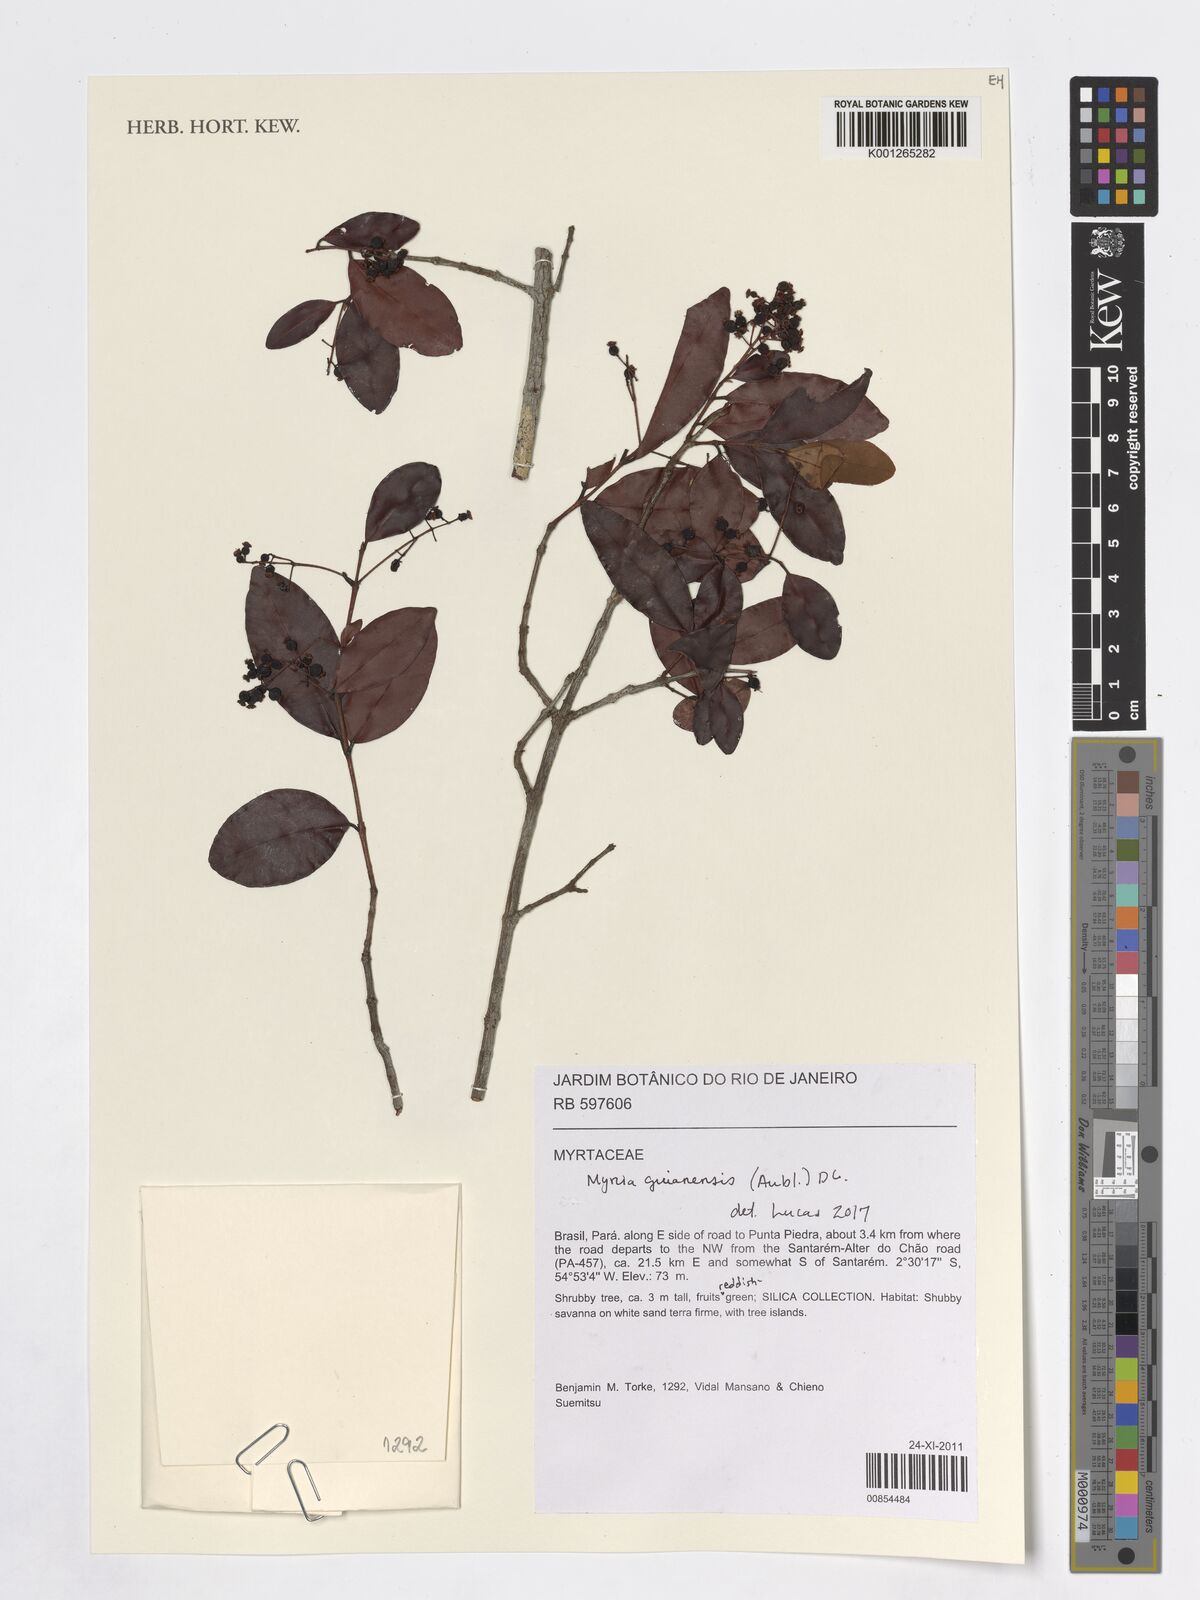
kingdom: Plantae
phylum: Tracheophyta
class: Magnoliopsida
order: Myrtales
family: Myrtaceae
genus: Myrcia
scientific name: Myrcia guianensis
